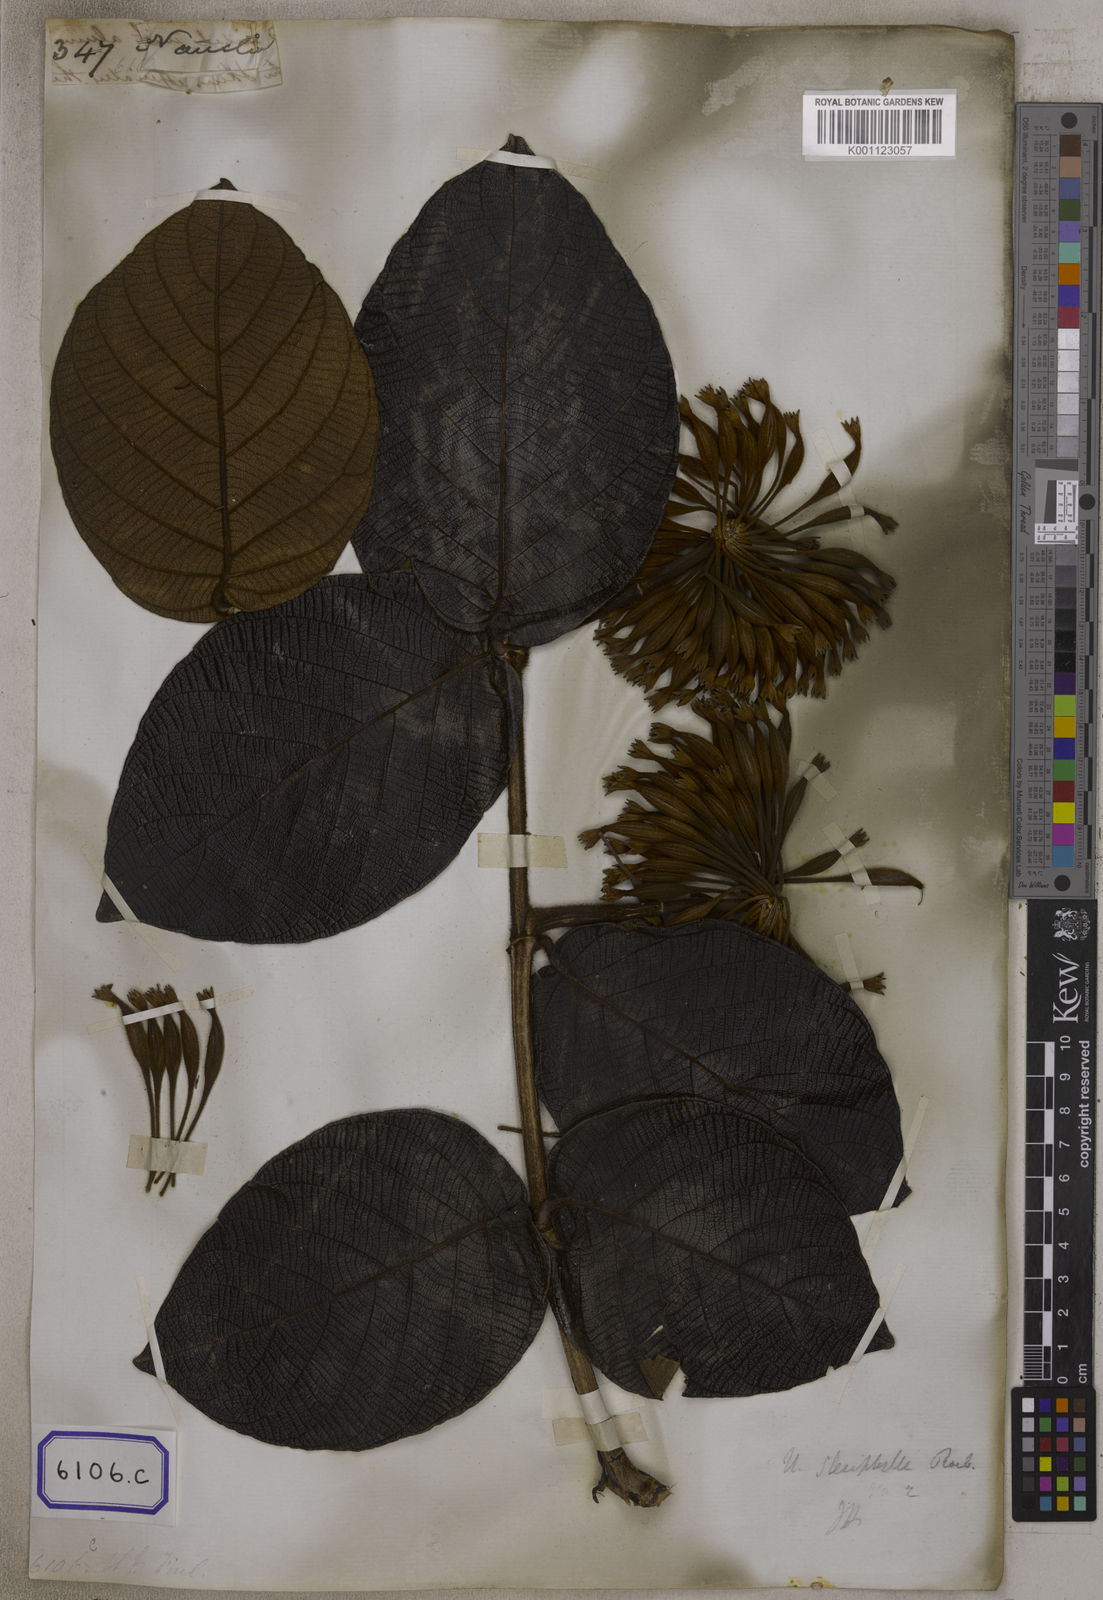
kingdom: Plantae
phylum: Tracheophyta
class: Magnoliopsida
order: Gentianales
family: Rubiaceae
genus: Uncaria
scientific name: Uncaria cordata
